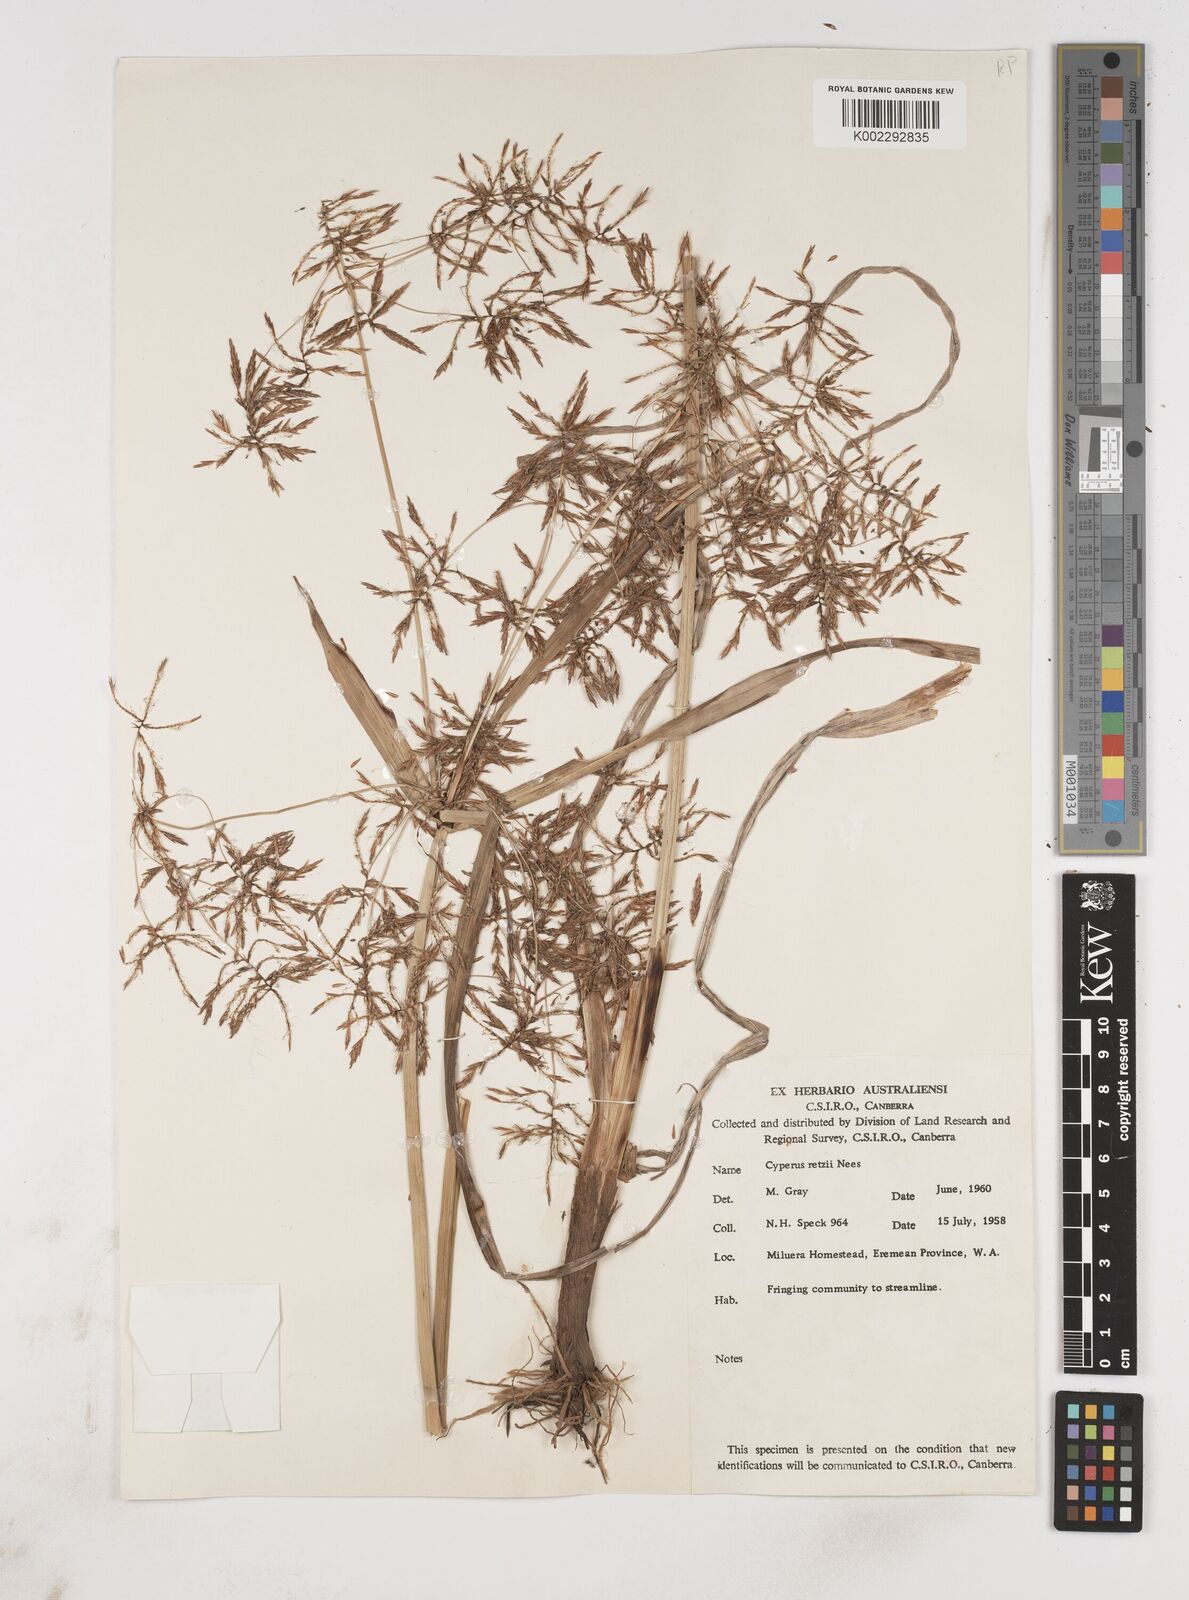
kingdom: Plantae
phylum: Tracheophyta
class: Liliopsida
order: Poales
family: Cyperaceae
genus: Cyperus
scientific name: Cyperus bifax
